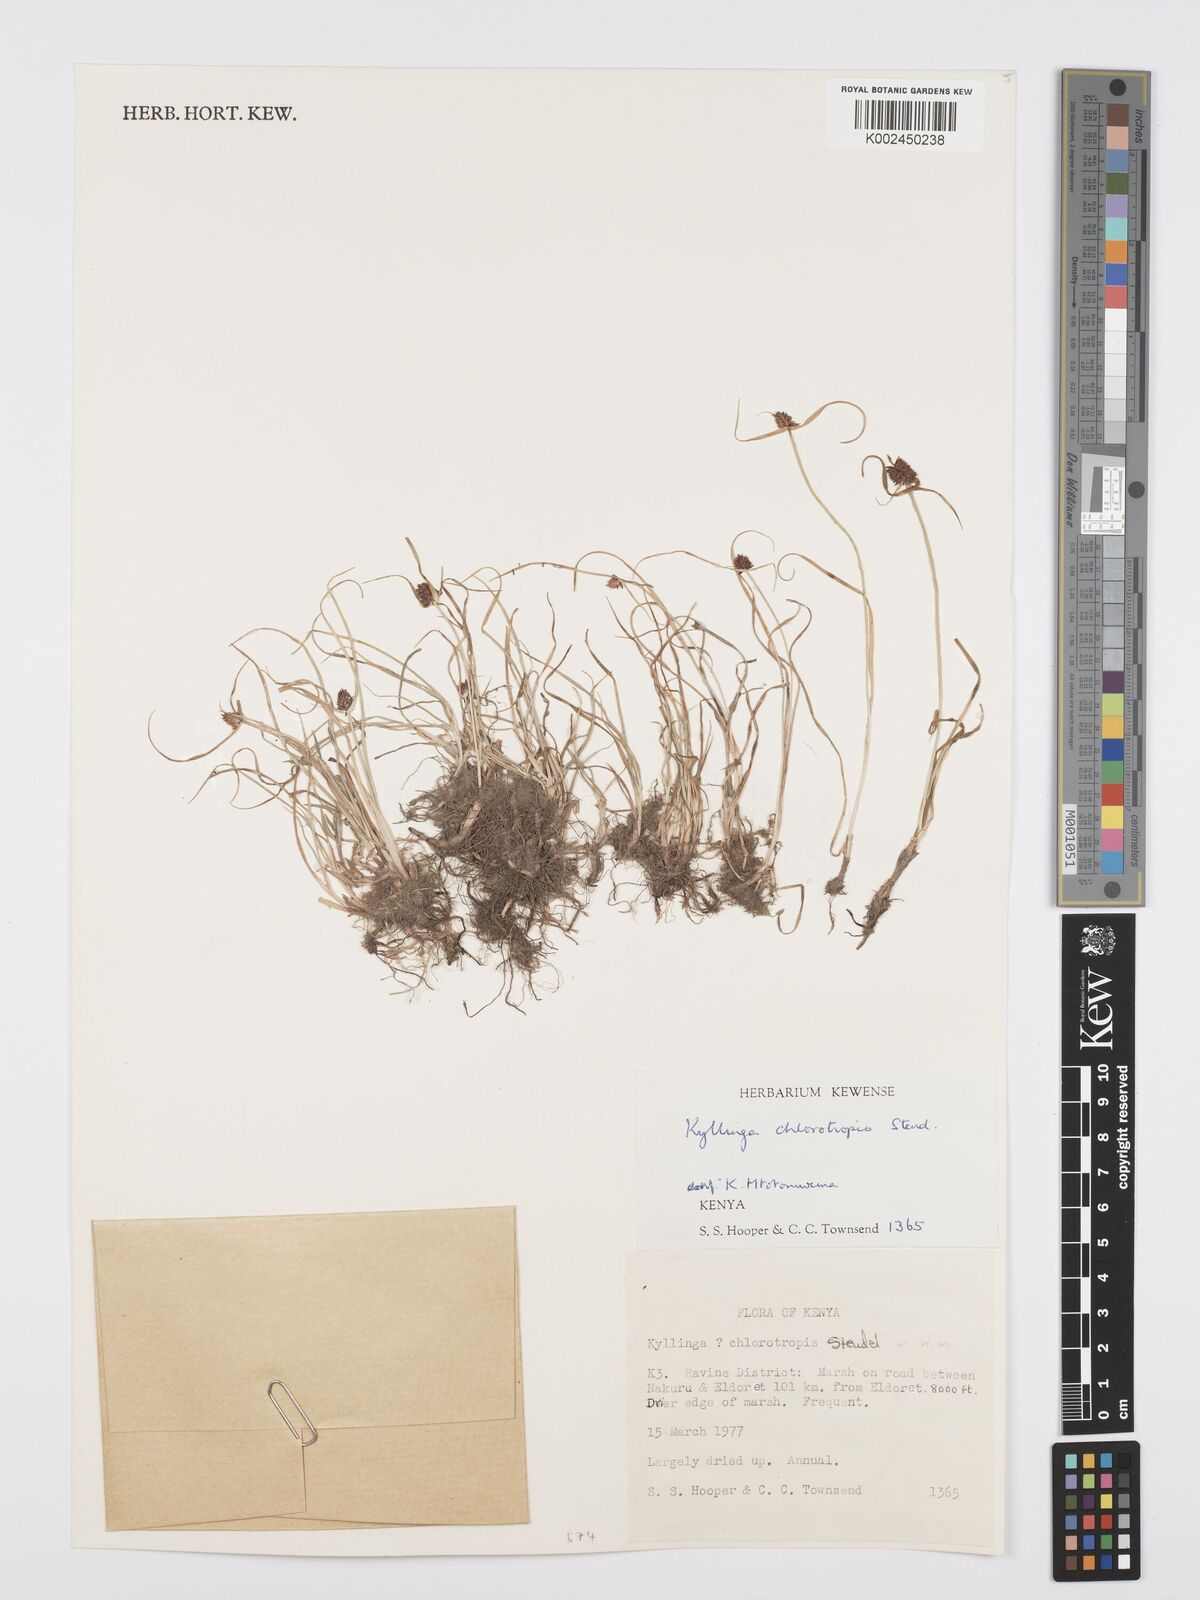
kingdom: Plantae
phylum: Tracheophyta
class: Liliopsida
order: Poales
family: Cyperaceae
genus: Cyperus
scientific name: Cyperus
